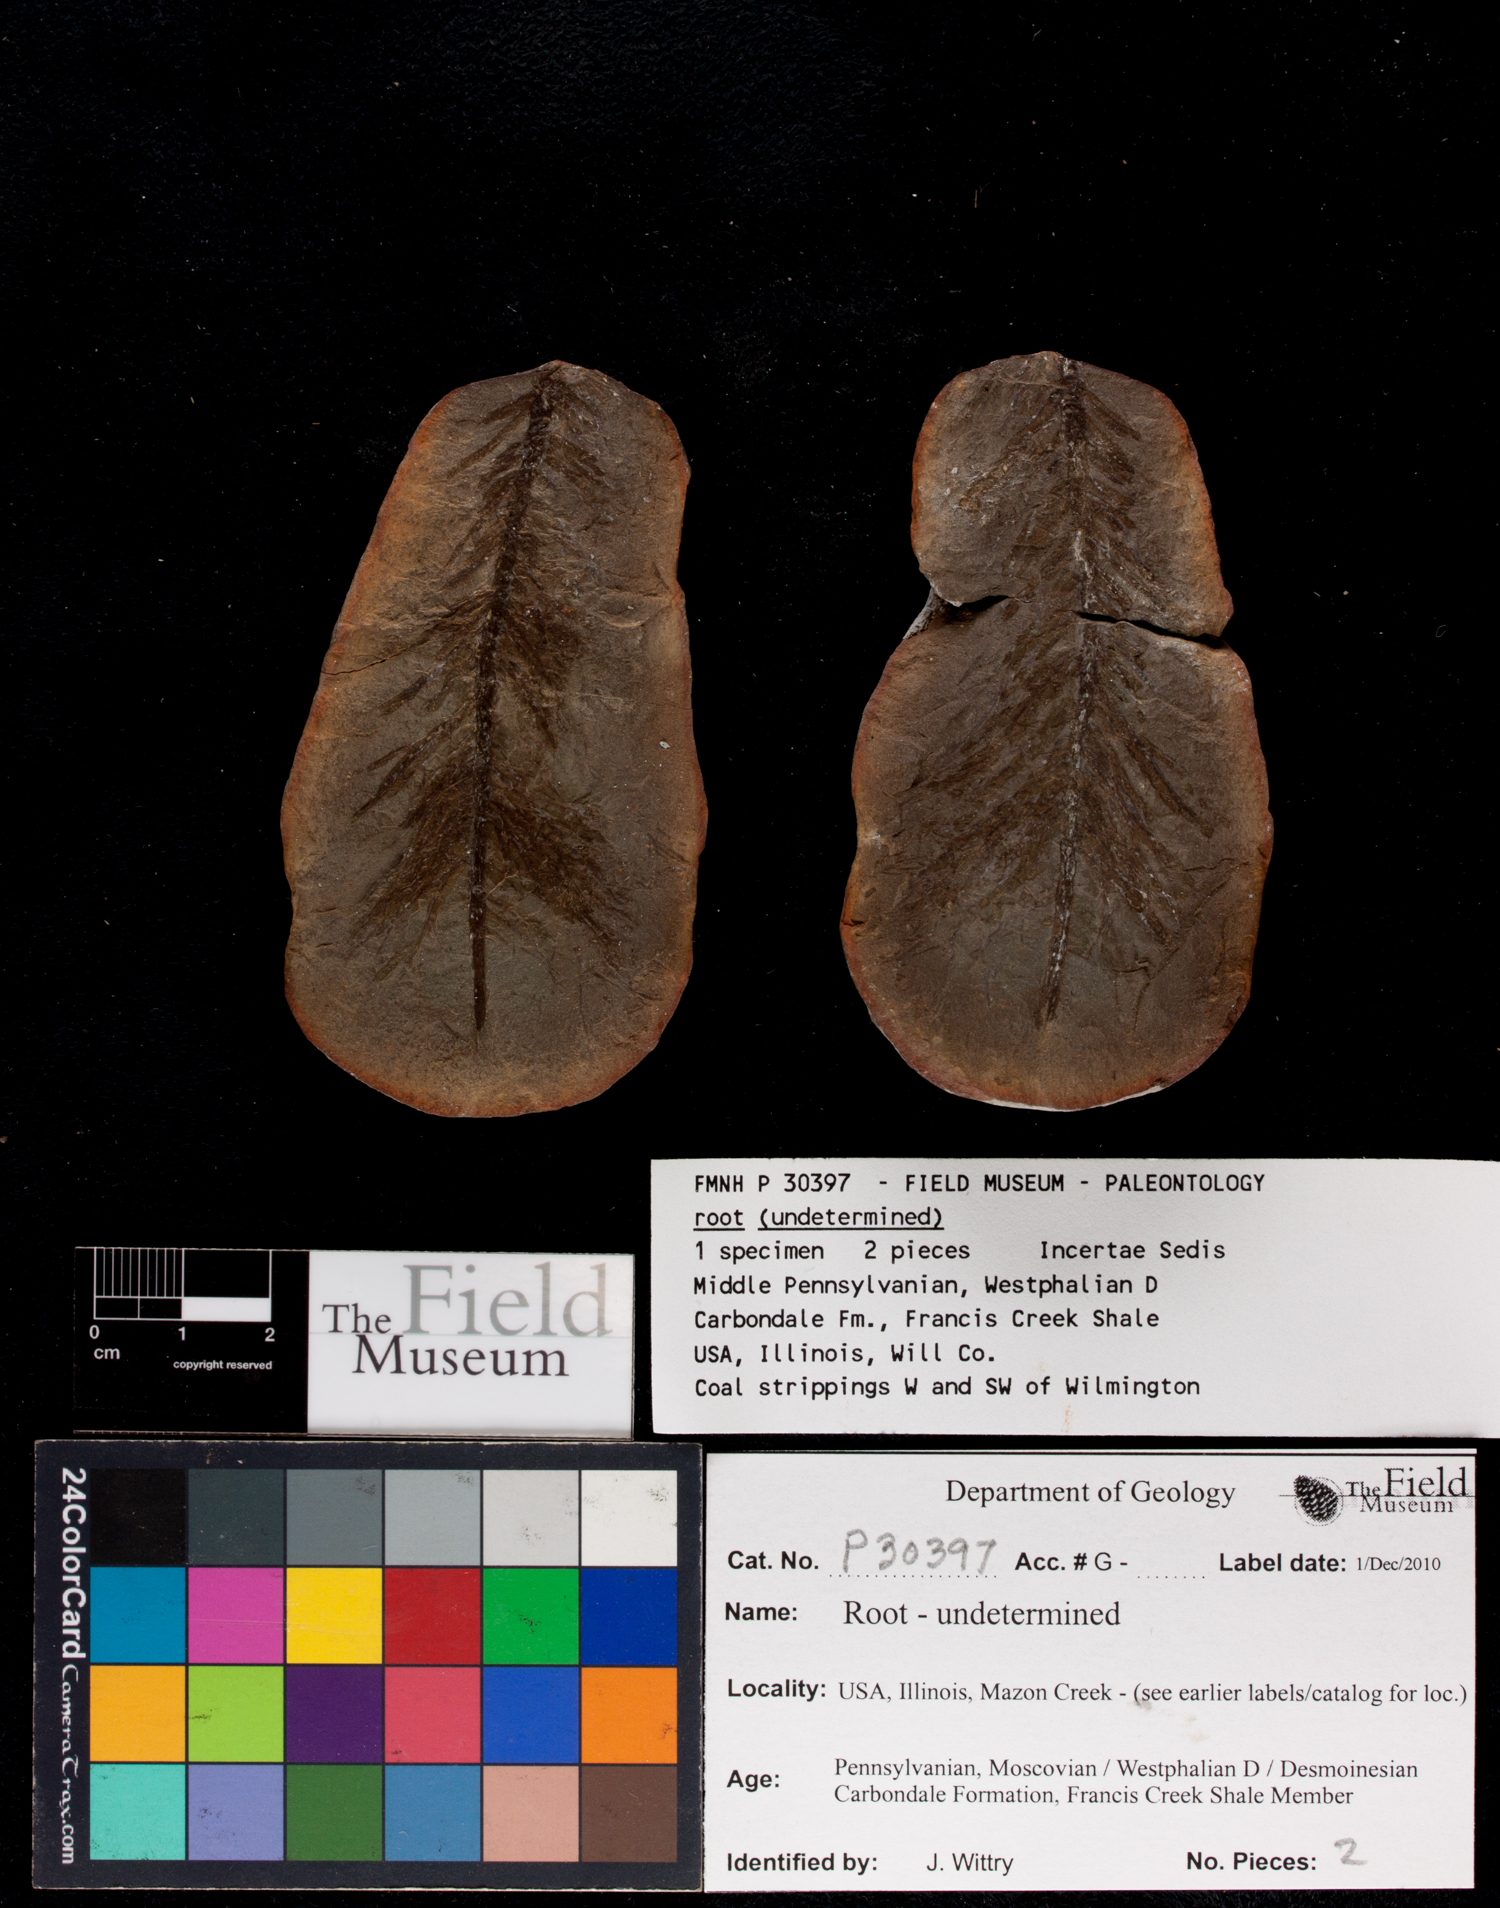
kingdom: Plantae
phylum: Tracheophyta
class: Polypodiopsida
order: Equisetales
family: Calamitaceae
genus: Radicites
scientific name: Radicites
